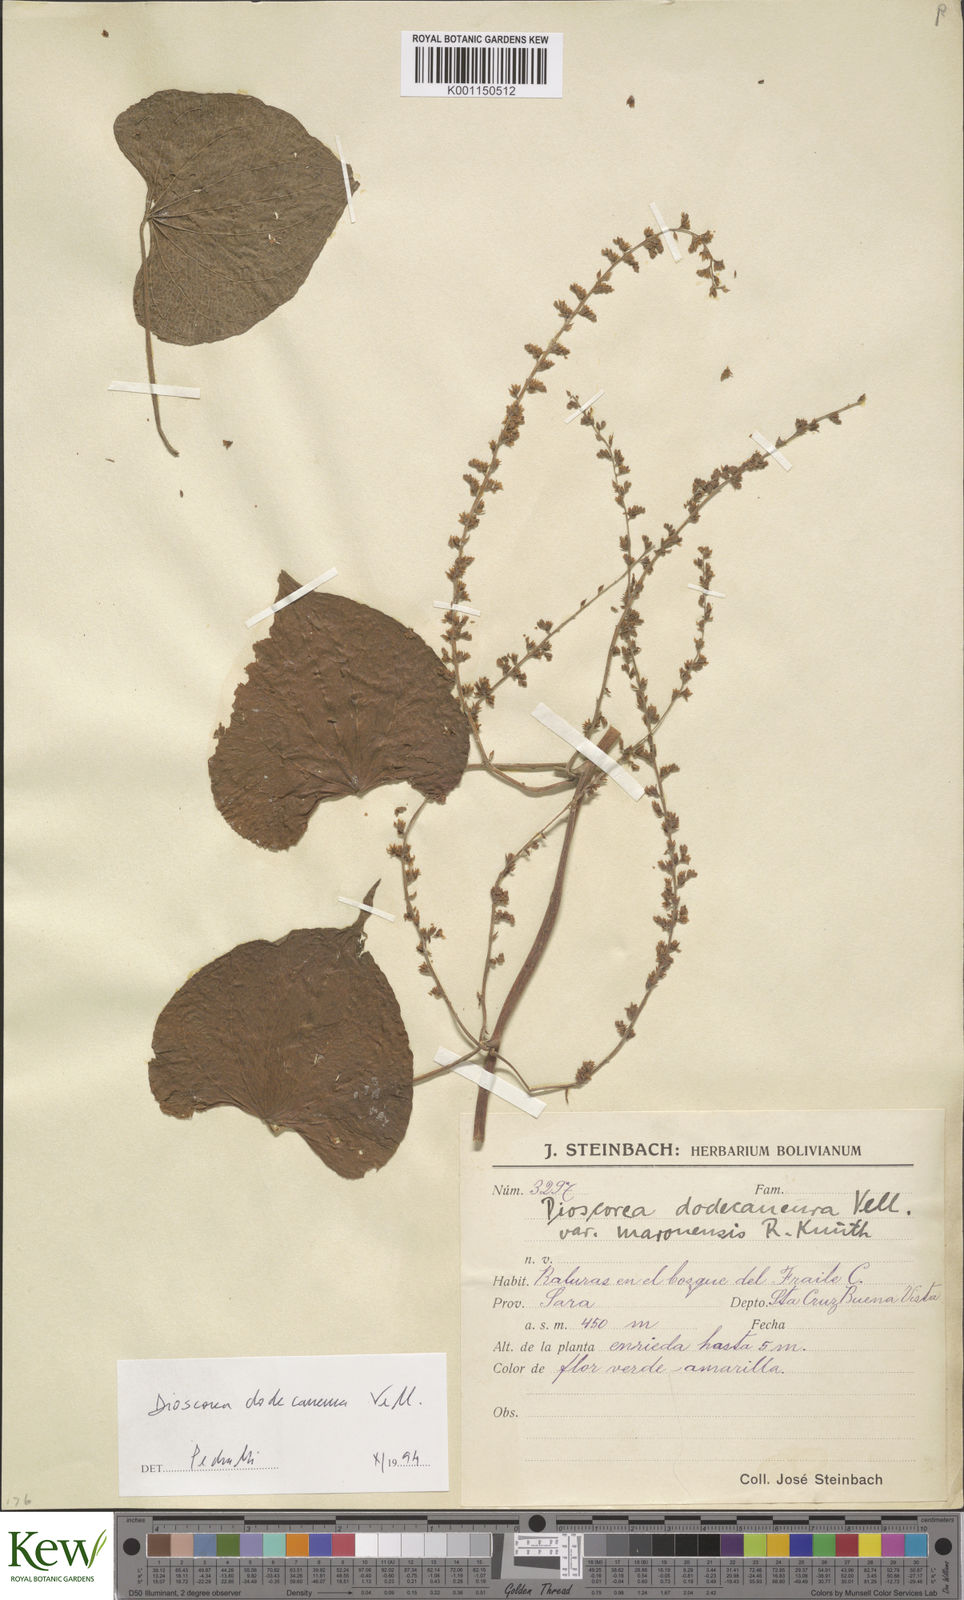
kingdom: Plantae
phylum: Tracheophyta
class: Liliopsida
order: Dioscoreales
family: Dioscoreaceae
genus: Dioscorea
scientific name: Dioscorea stegelmanniana
